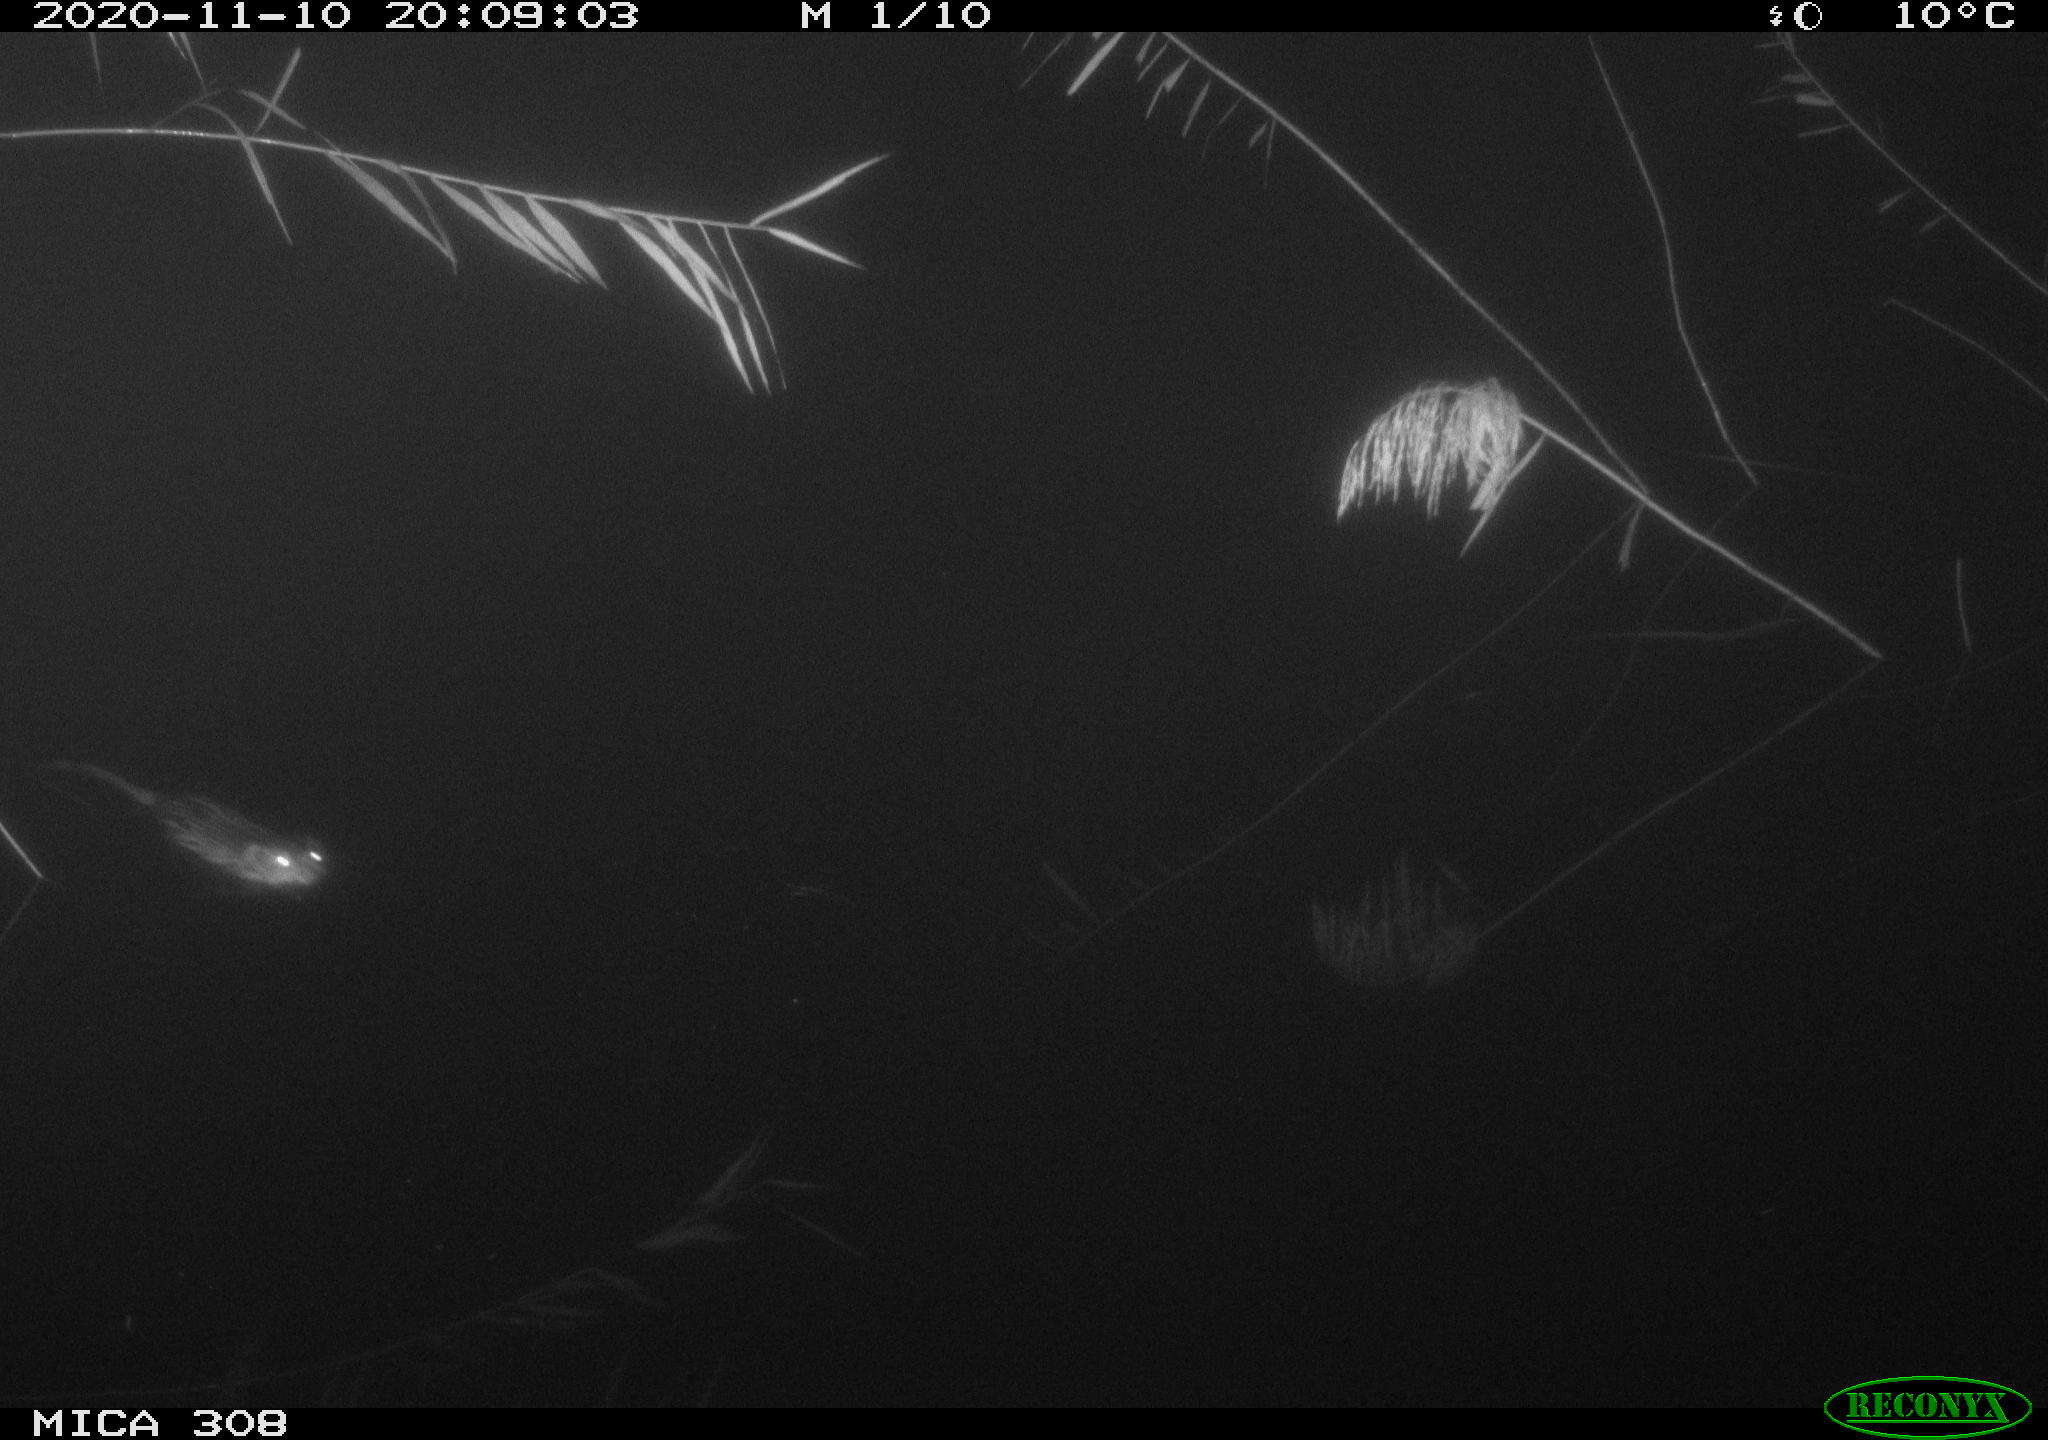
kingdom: Animalia
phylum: Chordata
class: Mammalia
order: Rodentia
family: Cricetidae
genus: Ondatra
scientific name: Ondatra zibethicus
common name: Muskrat
